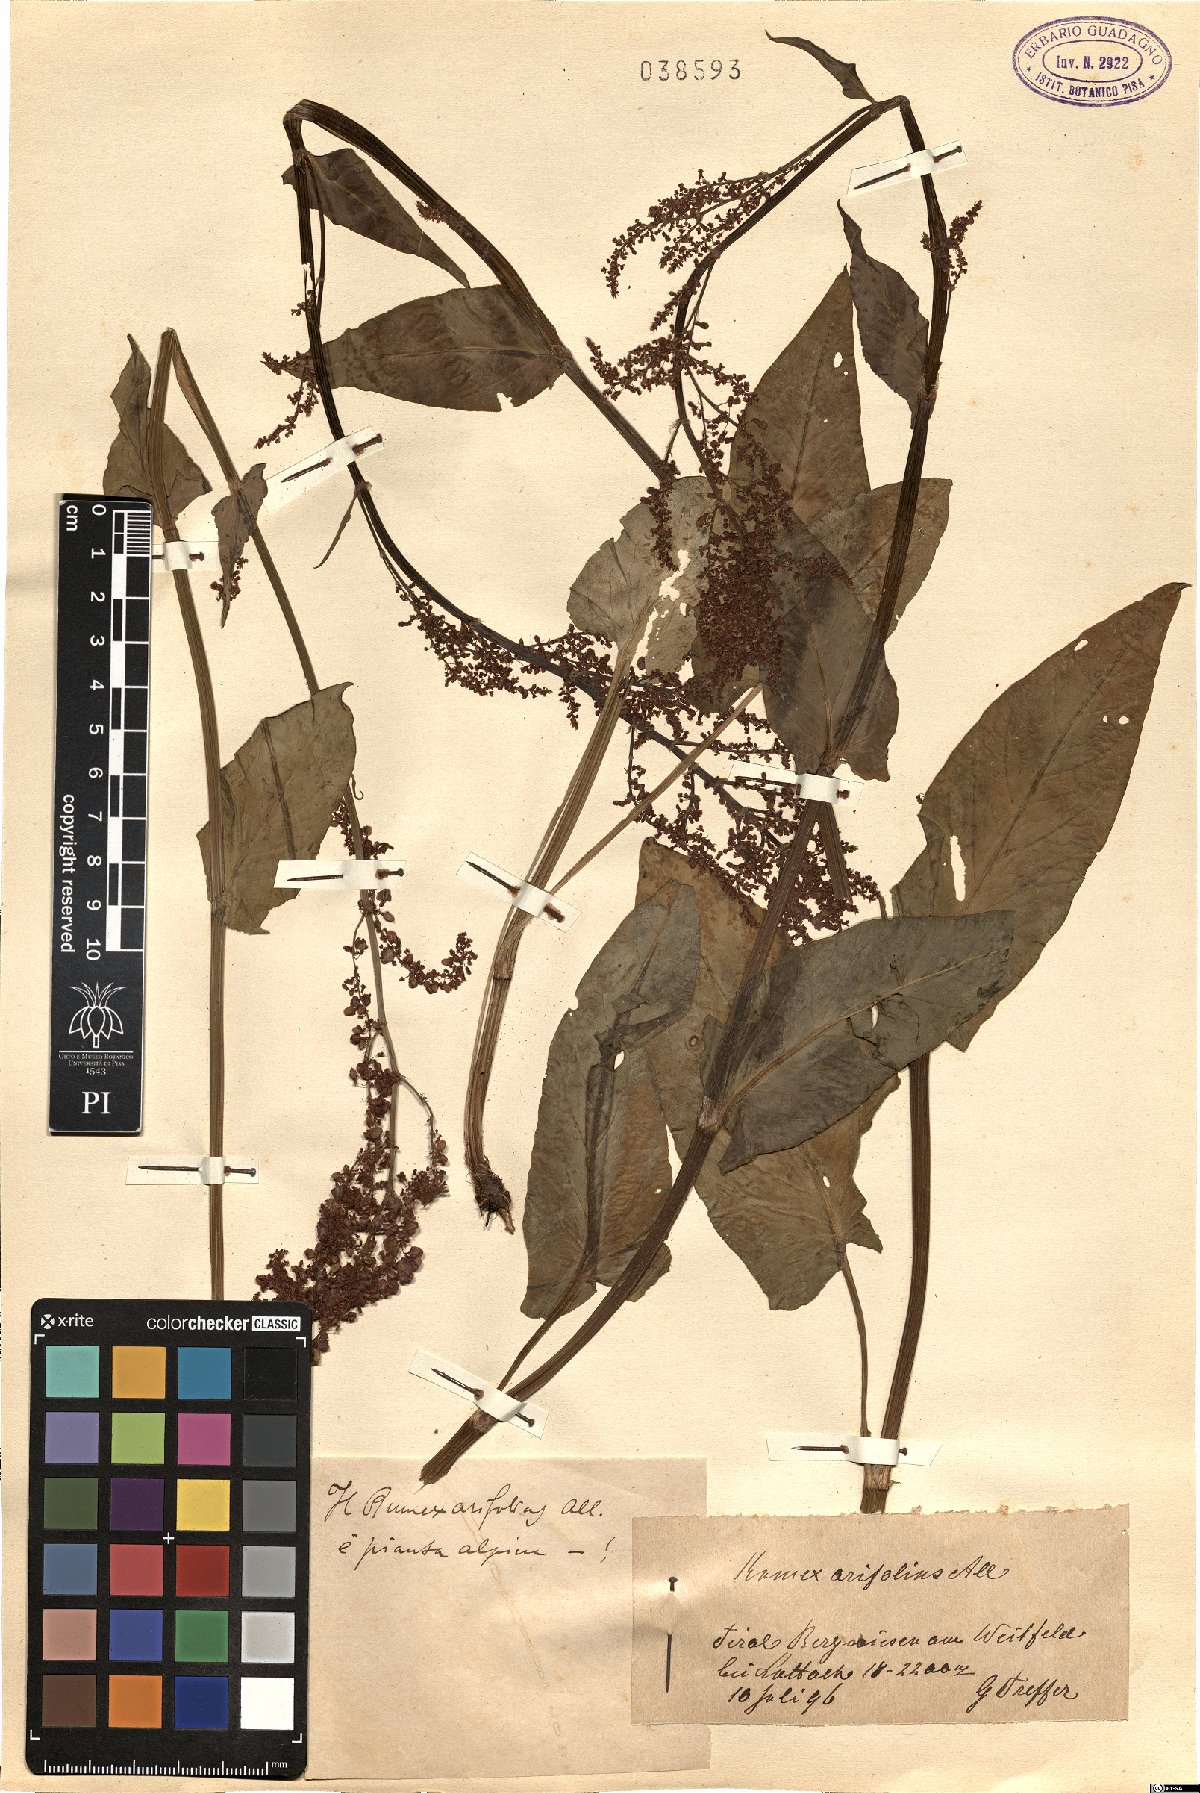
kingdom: Plantae
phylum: Tracheophyta
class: Magnoliopsida
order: Caryophyllales
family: Polygonaceae
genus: Rumex
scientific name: Rumex arifolius
